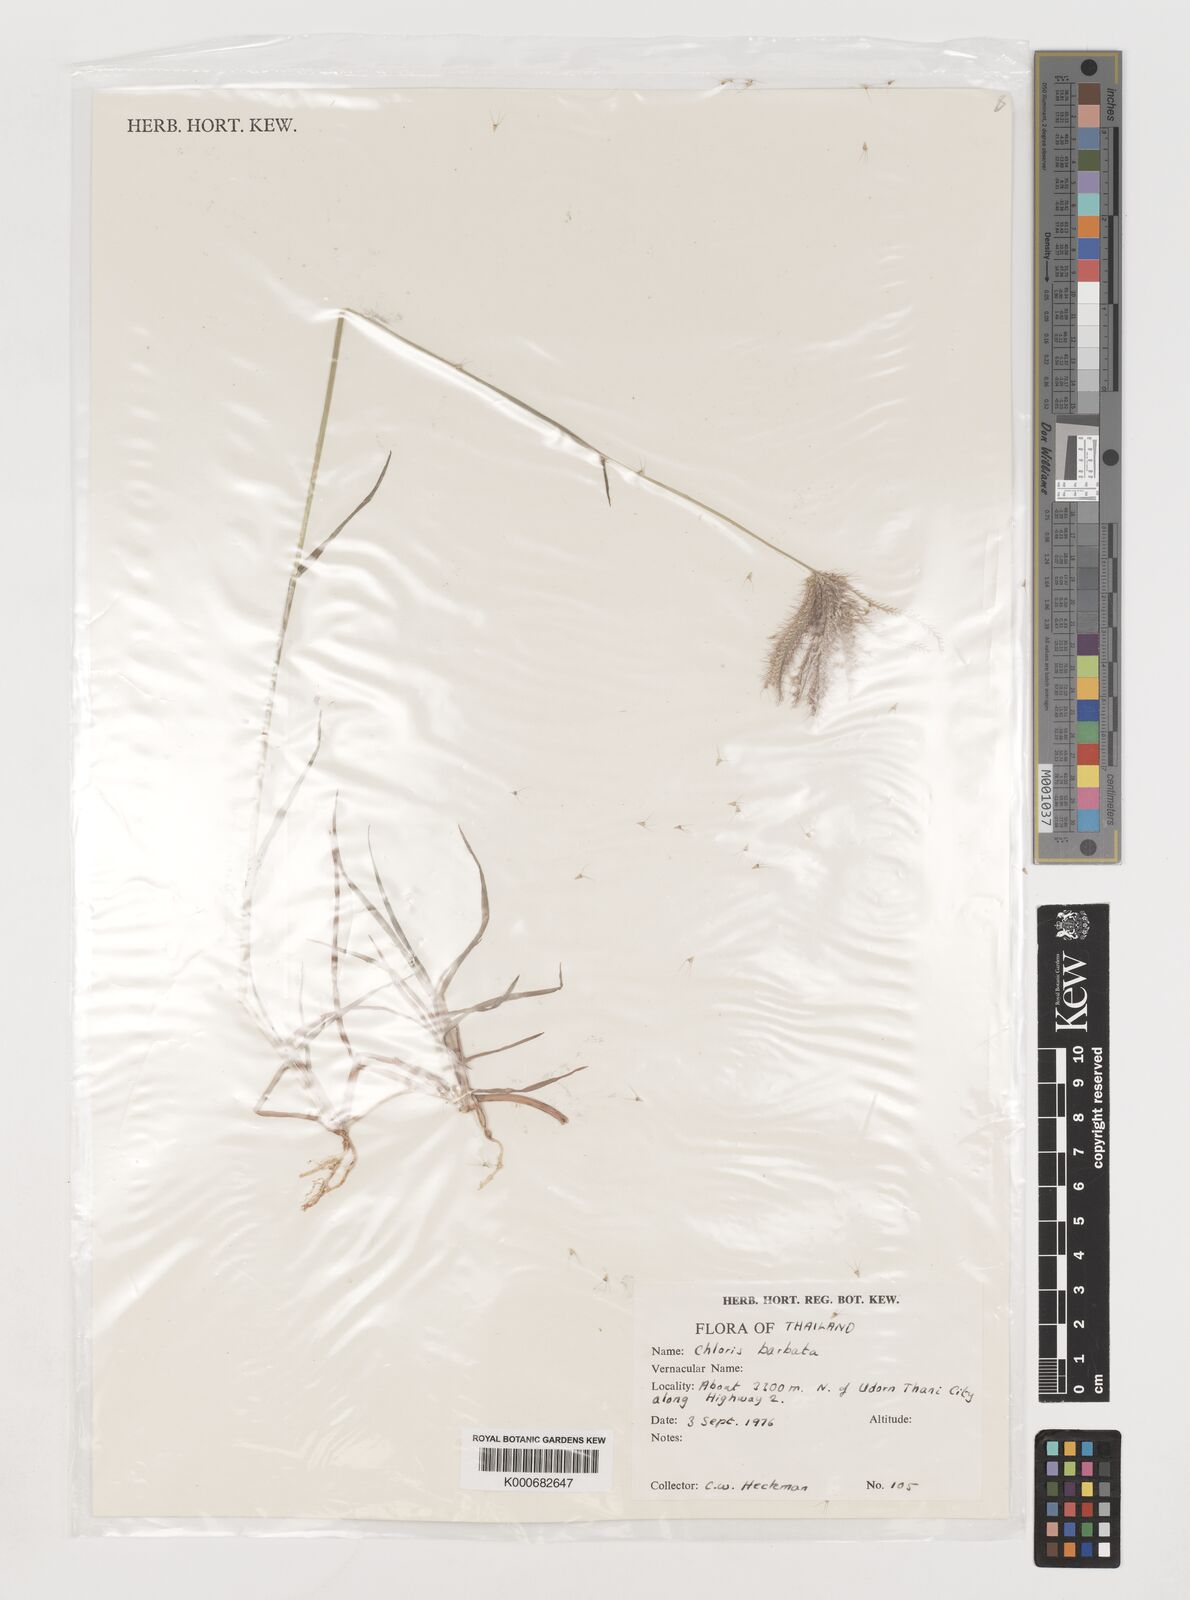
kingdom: Plantae
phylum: Tracheophyta
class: Liliopsida
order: Poales
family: Poaceae
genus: Chloris
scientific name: Chloris barbata
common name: Swollen fingergrass
